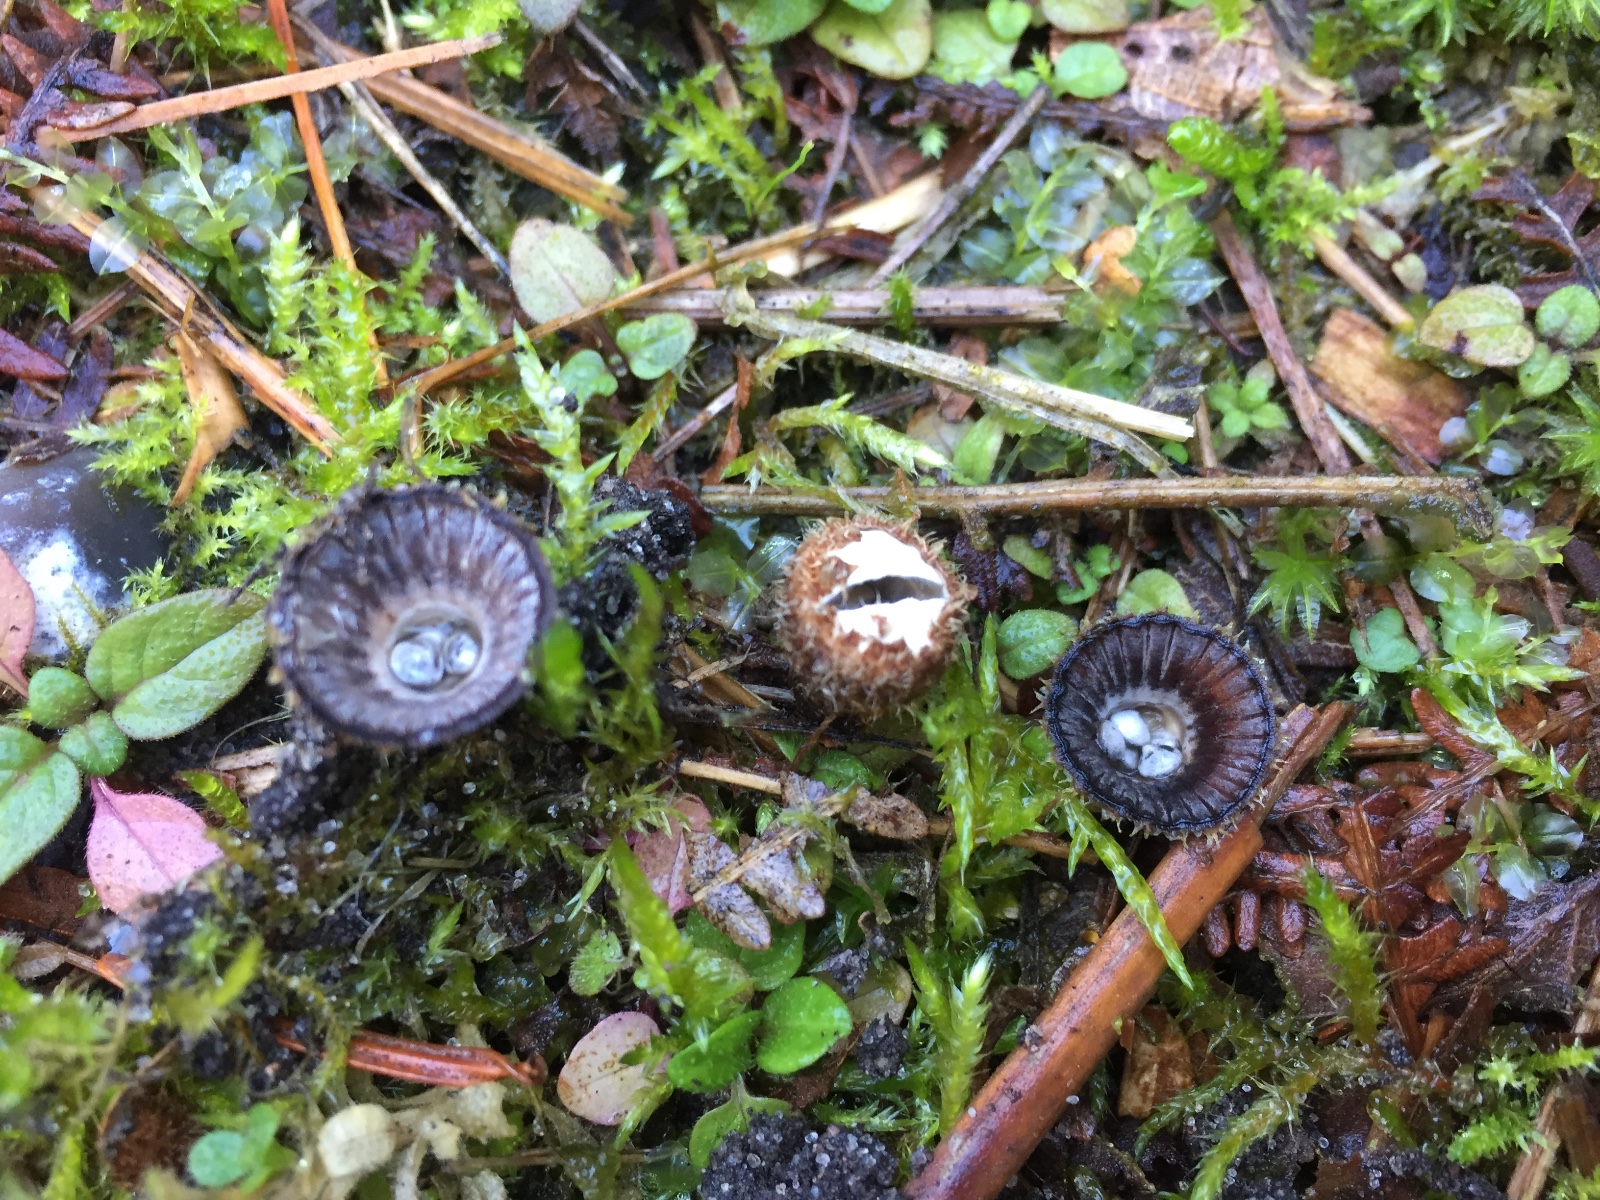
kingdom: Fungi
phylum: Basidiomycota
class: Agaricomycetes
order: Agaricales
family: Agaricaceae
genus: Cyathus
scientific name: Cyathus striatus
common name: stribet redesvamp
